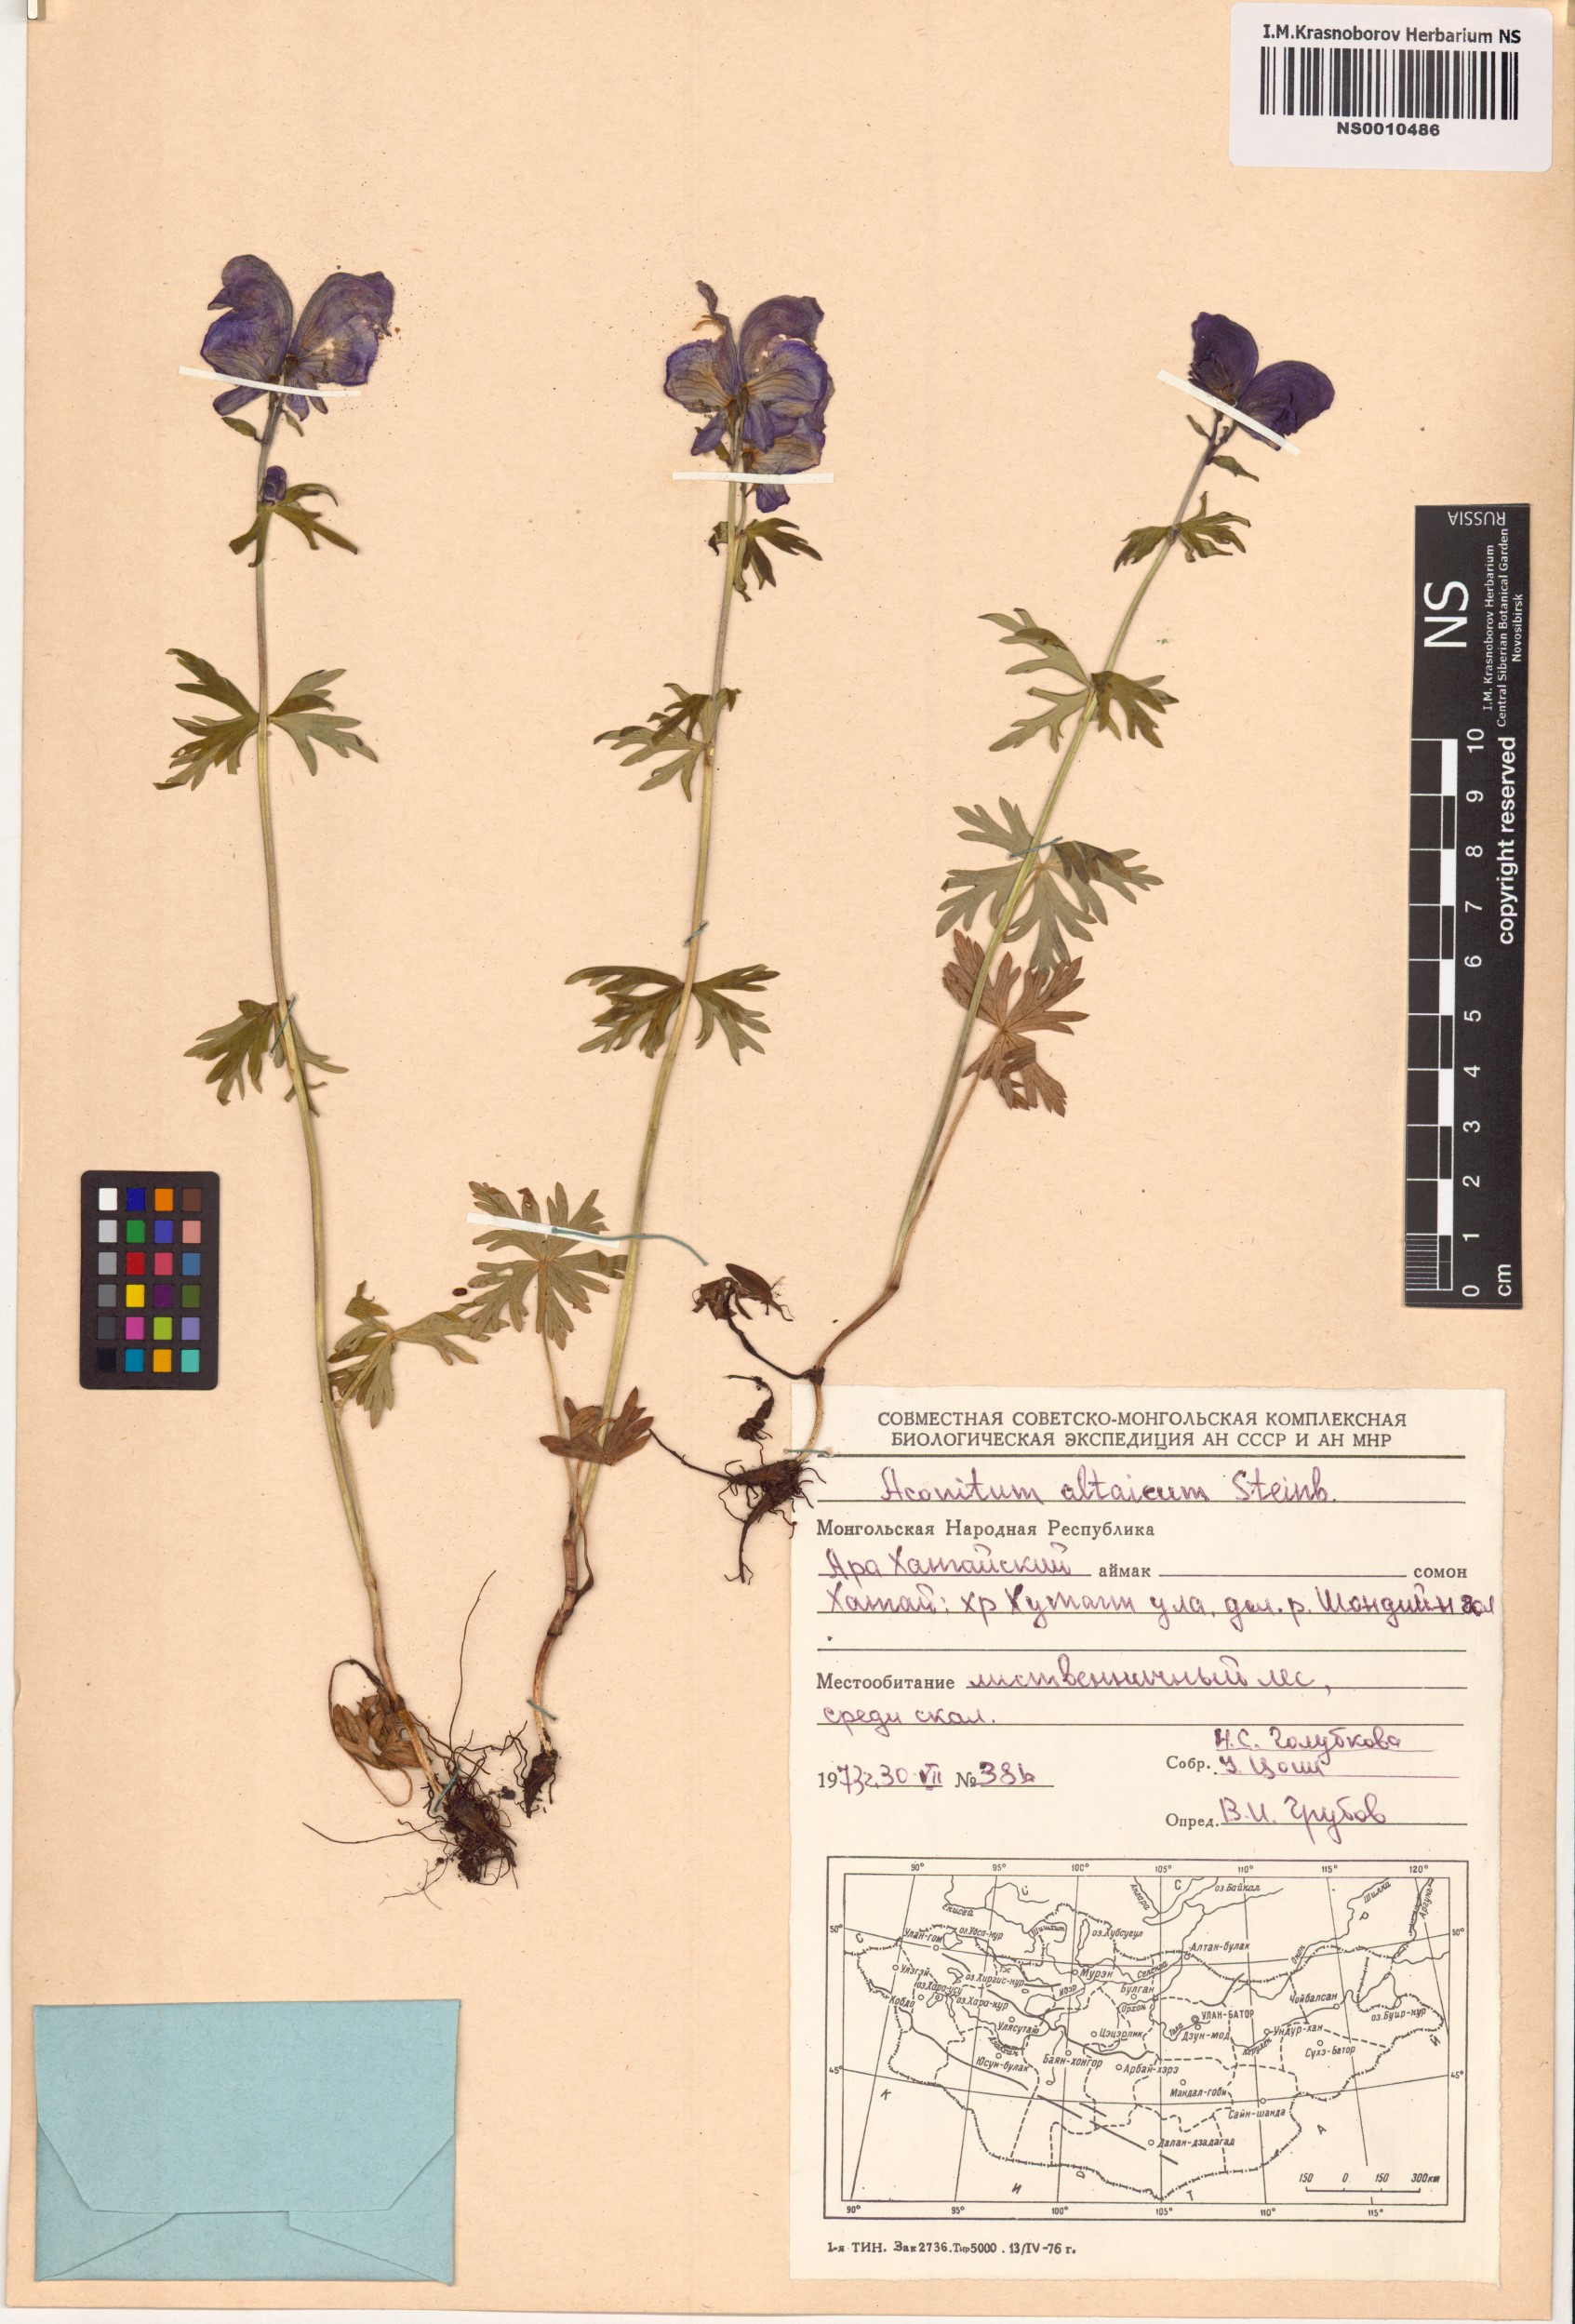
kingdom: Plantae
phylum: Tracheophyta
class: Magnoliopsida
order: Ranunculales
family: Ranunculaceae
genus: Aconitum
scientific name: Aconitum glandulosum
